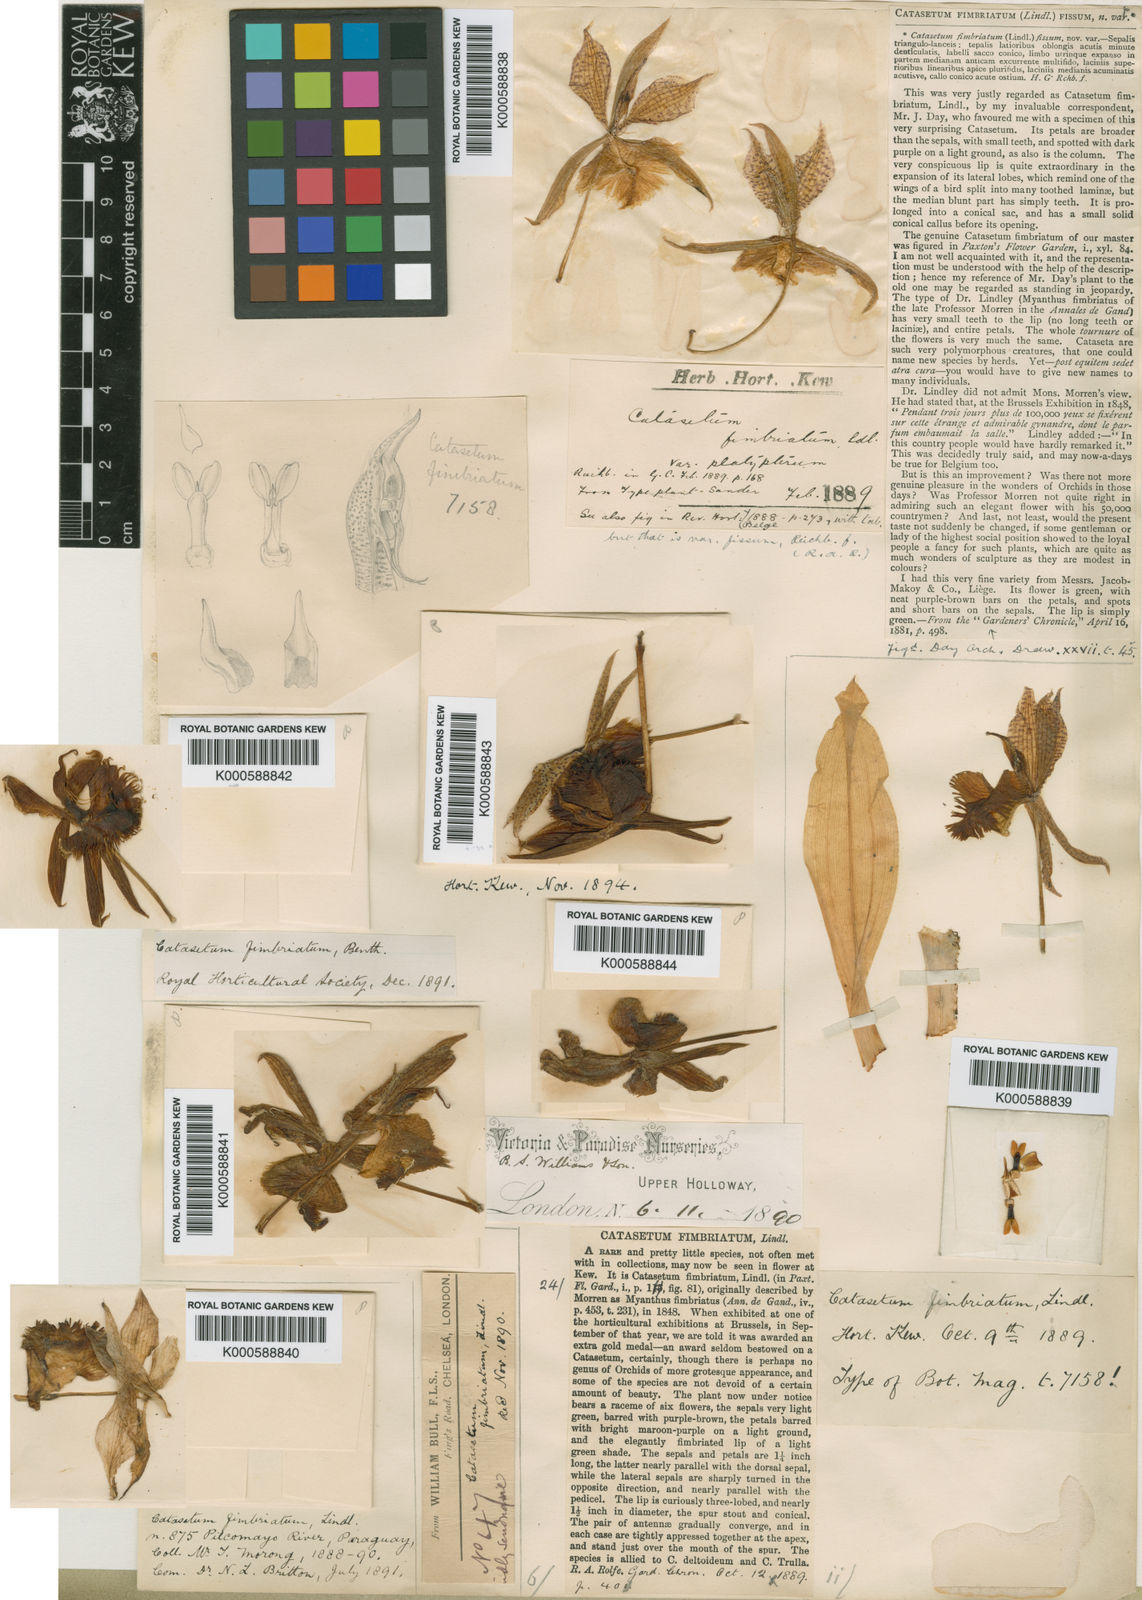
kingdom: Plantae
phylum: Tracheophyta
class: Liliopsida
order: Asparagales
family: Orchidaceae
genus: Catasetum
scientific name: Catasetum fimbriatum
